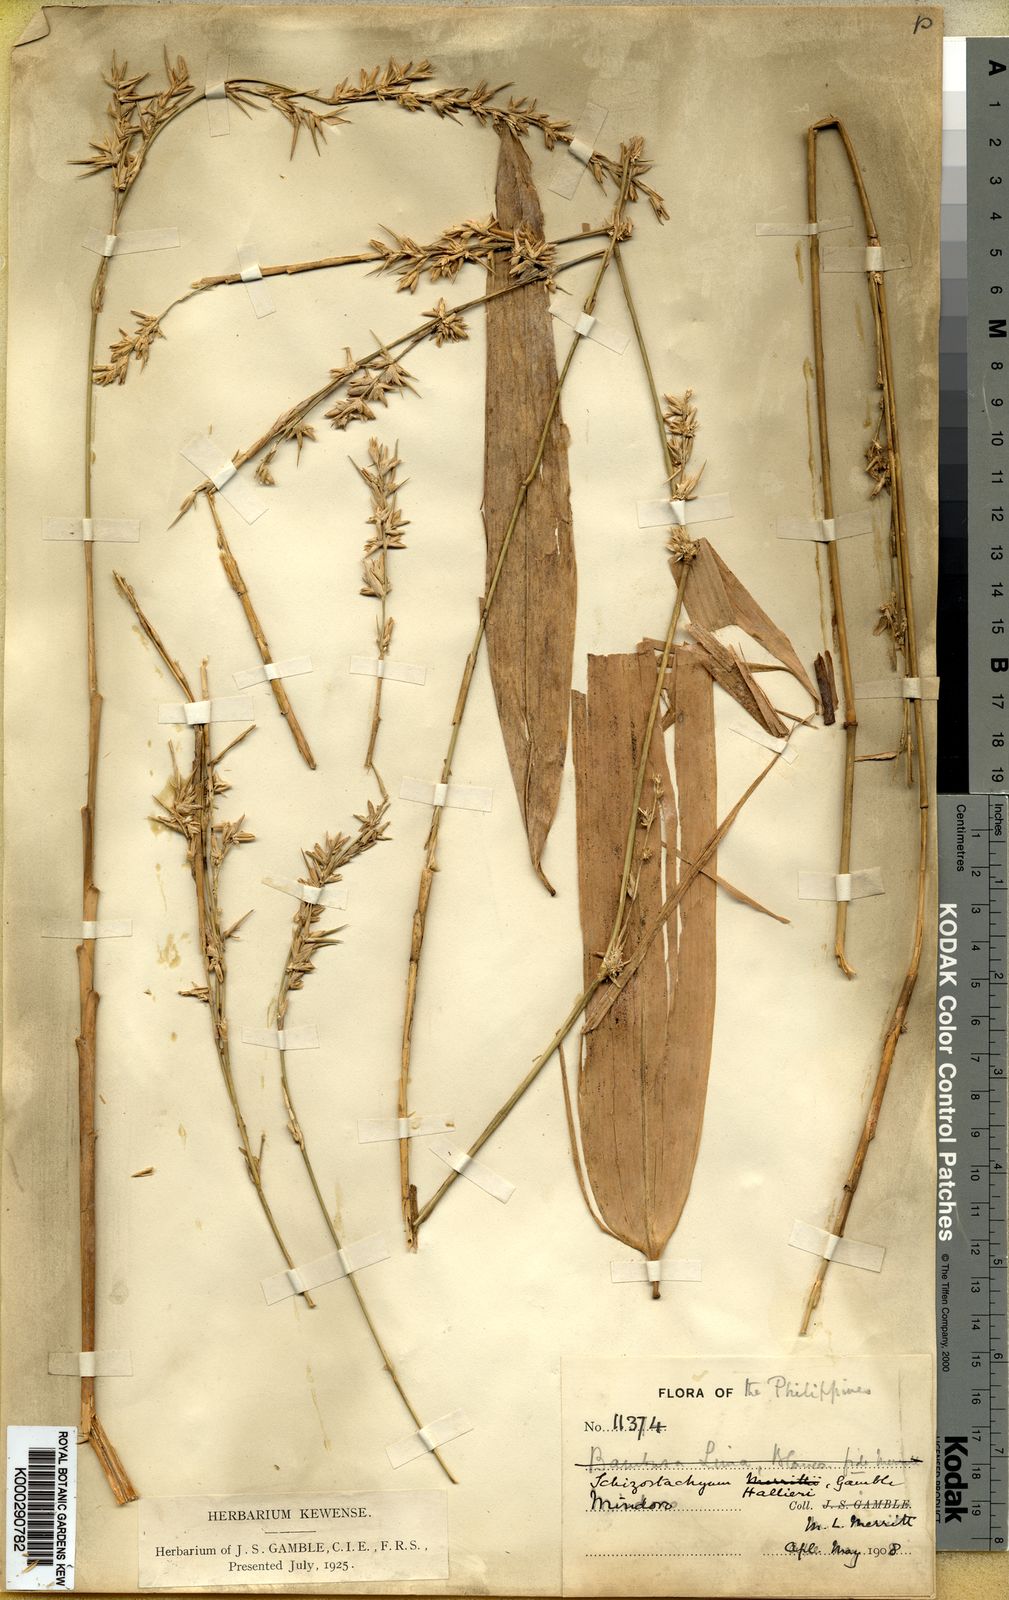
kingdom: Plantae
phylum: Tracheophyta
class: Liliopsida
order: Poales
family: Poaceae
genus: Schizostachyum
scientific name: Schizostachyum lima
